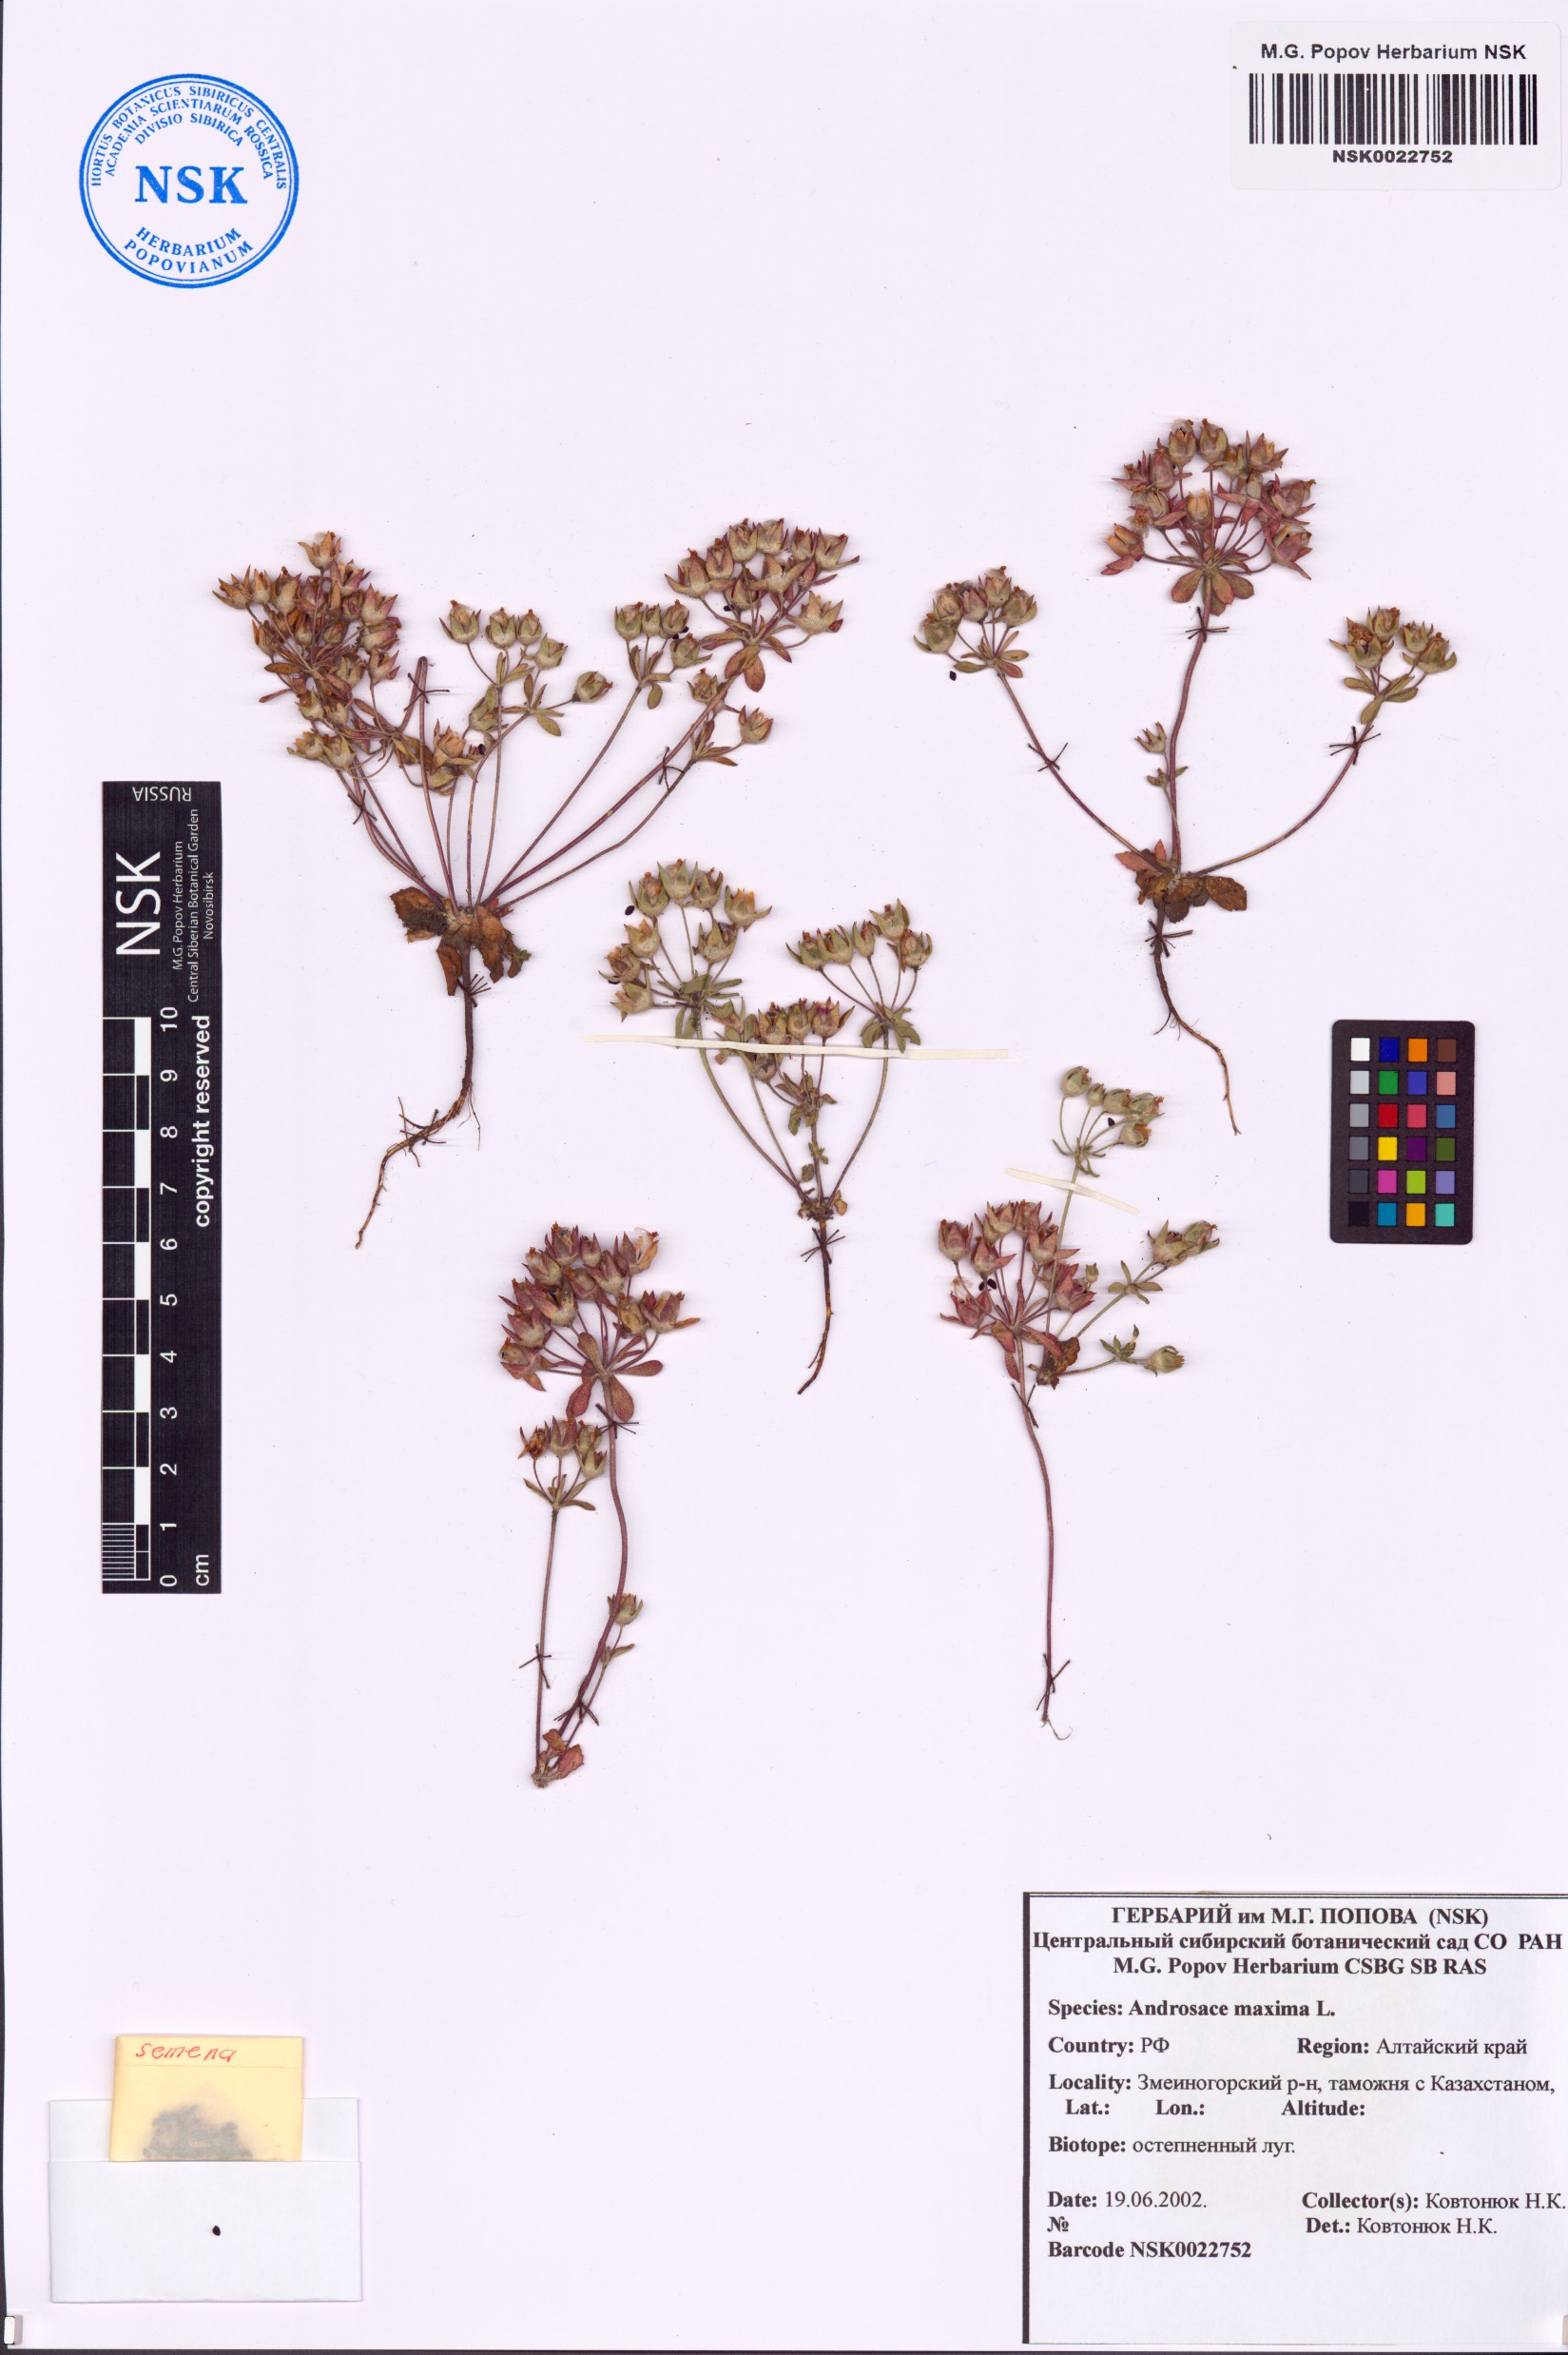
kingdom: Plantae
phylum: Tracheophyta
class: Magnoliopsida
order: Ericales
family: Primulaceae
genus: Androsace
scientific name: Androsace maxima
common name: Annual androsace
